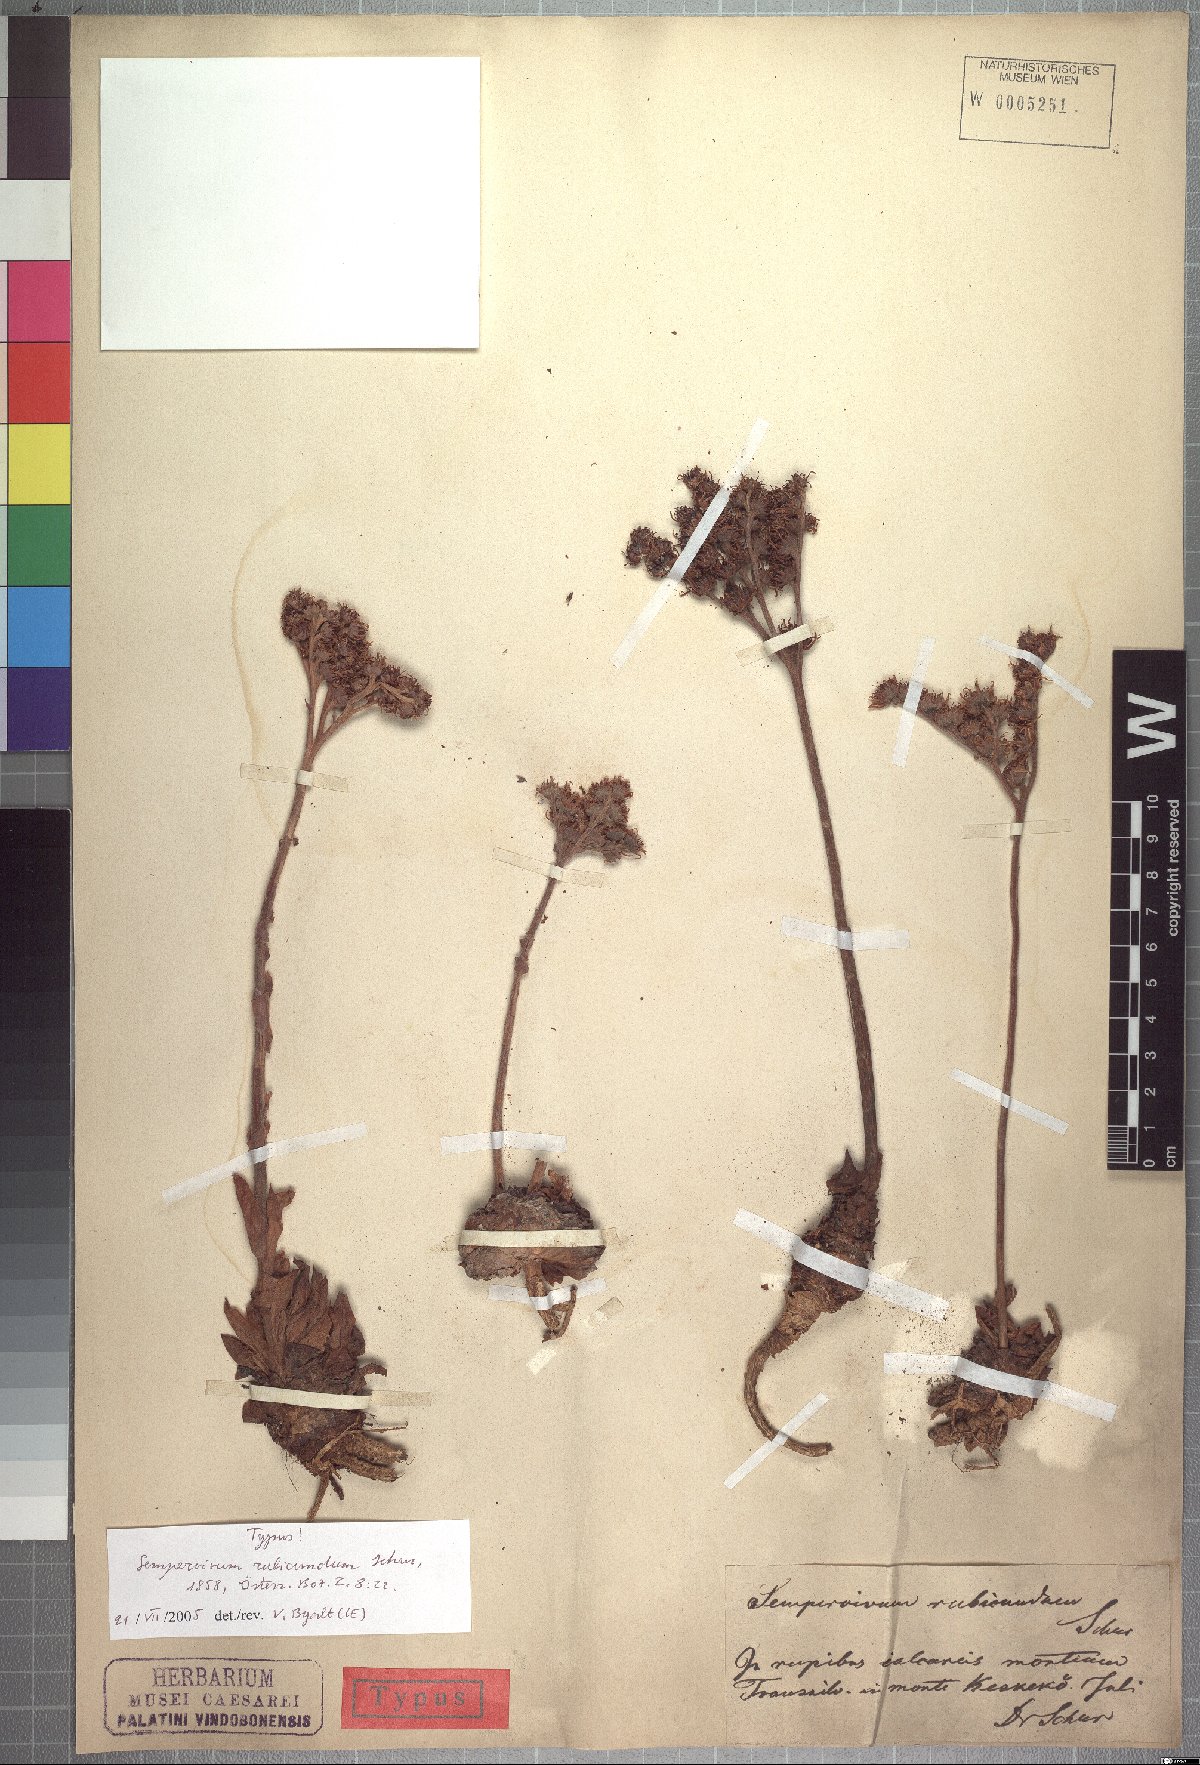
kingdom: Plantae
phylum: Tracheophyta
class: Magnoliopsida
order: Saxifragales
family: Crassulaceae
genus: Sempervivum
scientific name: Sempervivum marmoreum
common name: Houseleek
